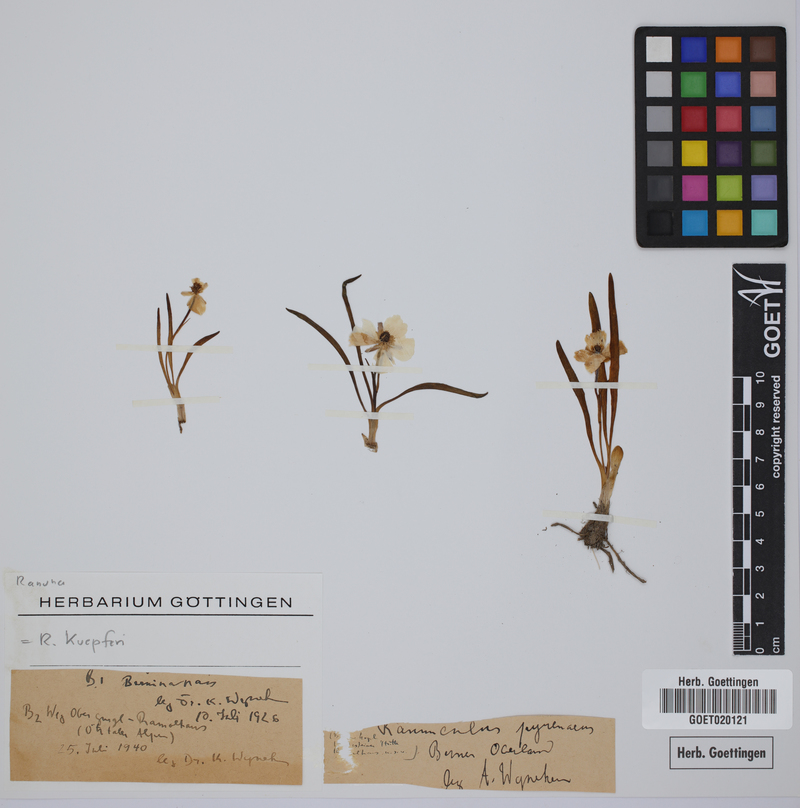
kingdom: Plantae
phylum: Tracheophyta
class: Magnoliopsida
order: Ranunculales
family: Ranunculaceae
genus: Ranunculus
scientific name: Ranunculus kuepferi
